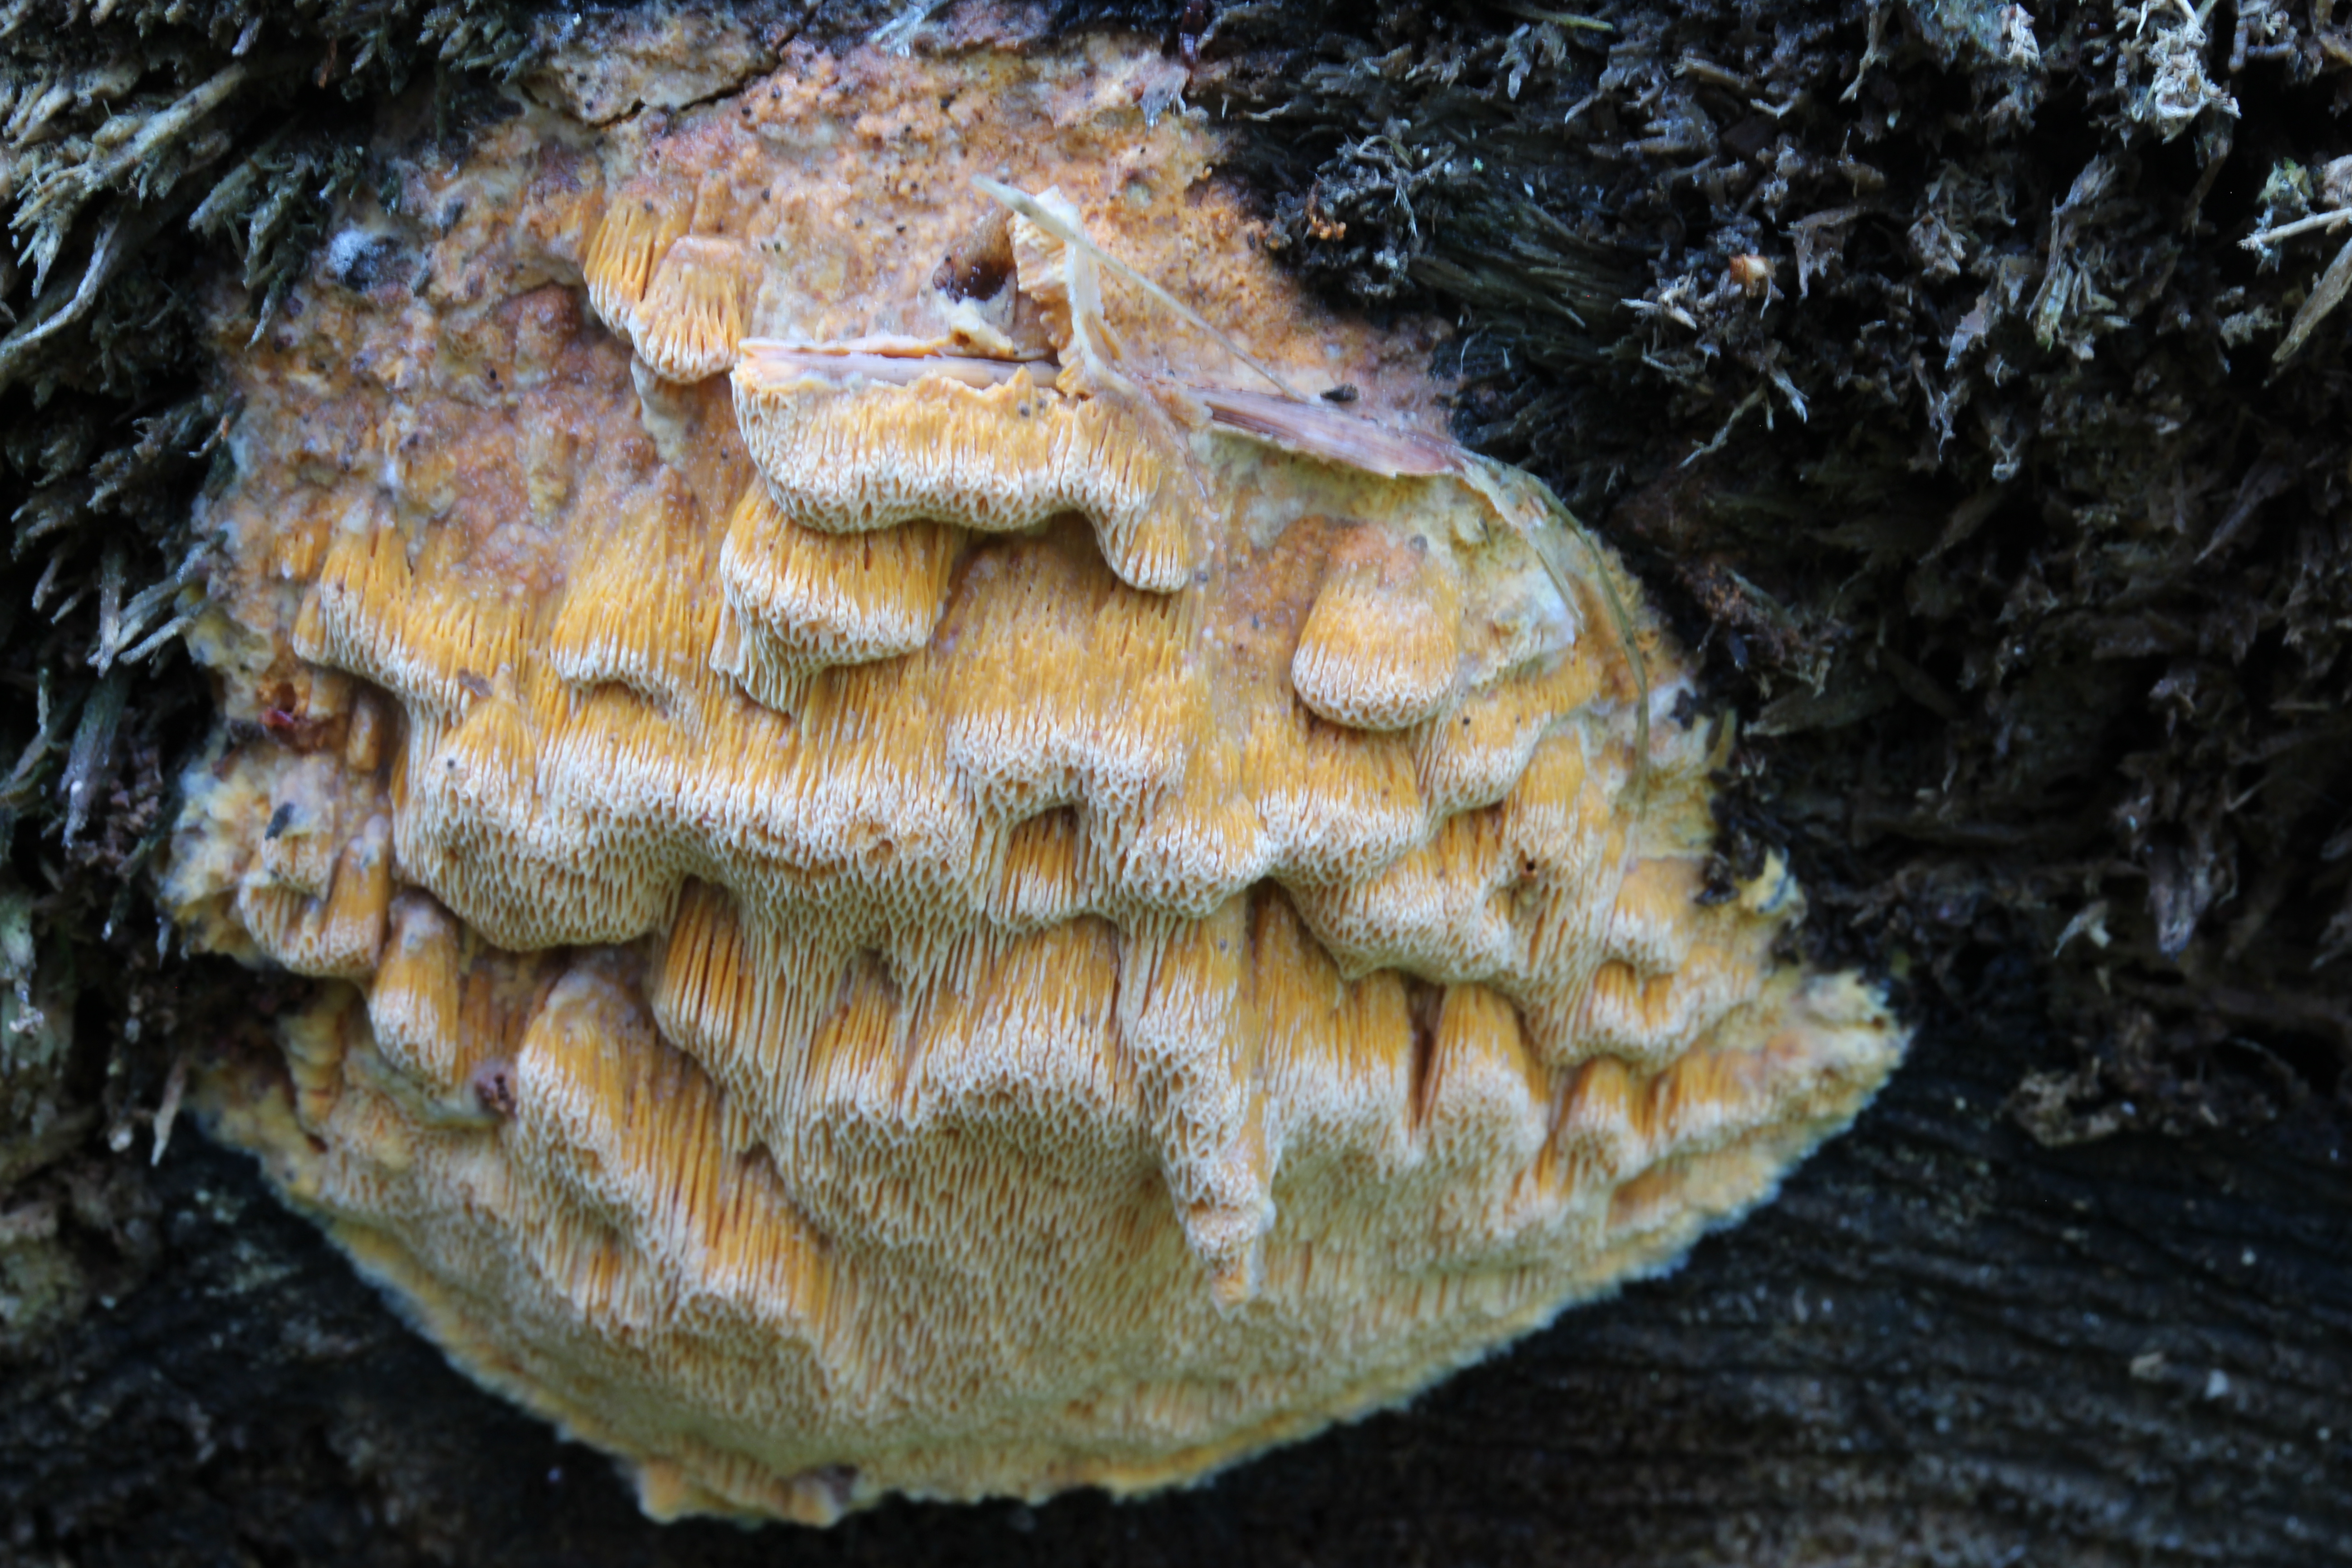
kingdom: Fungi
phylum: Basidiomycota
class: Agaricomycetes
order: Polyporales
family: Polyporaceae
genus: Erastia
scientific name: Erastia ochraceolateritia
